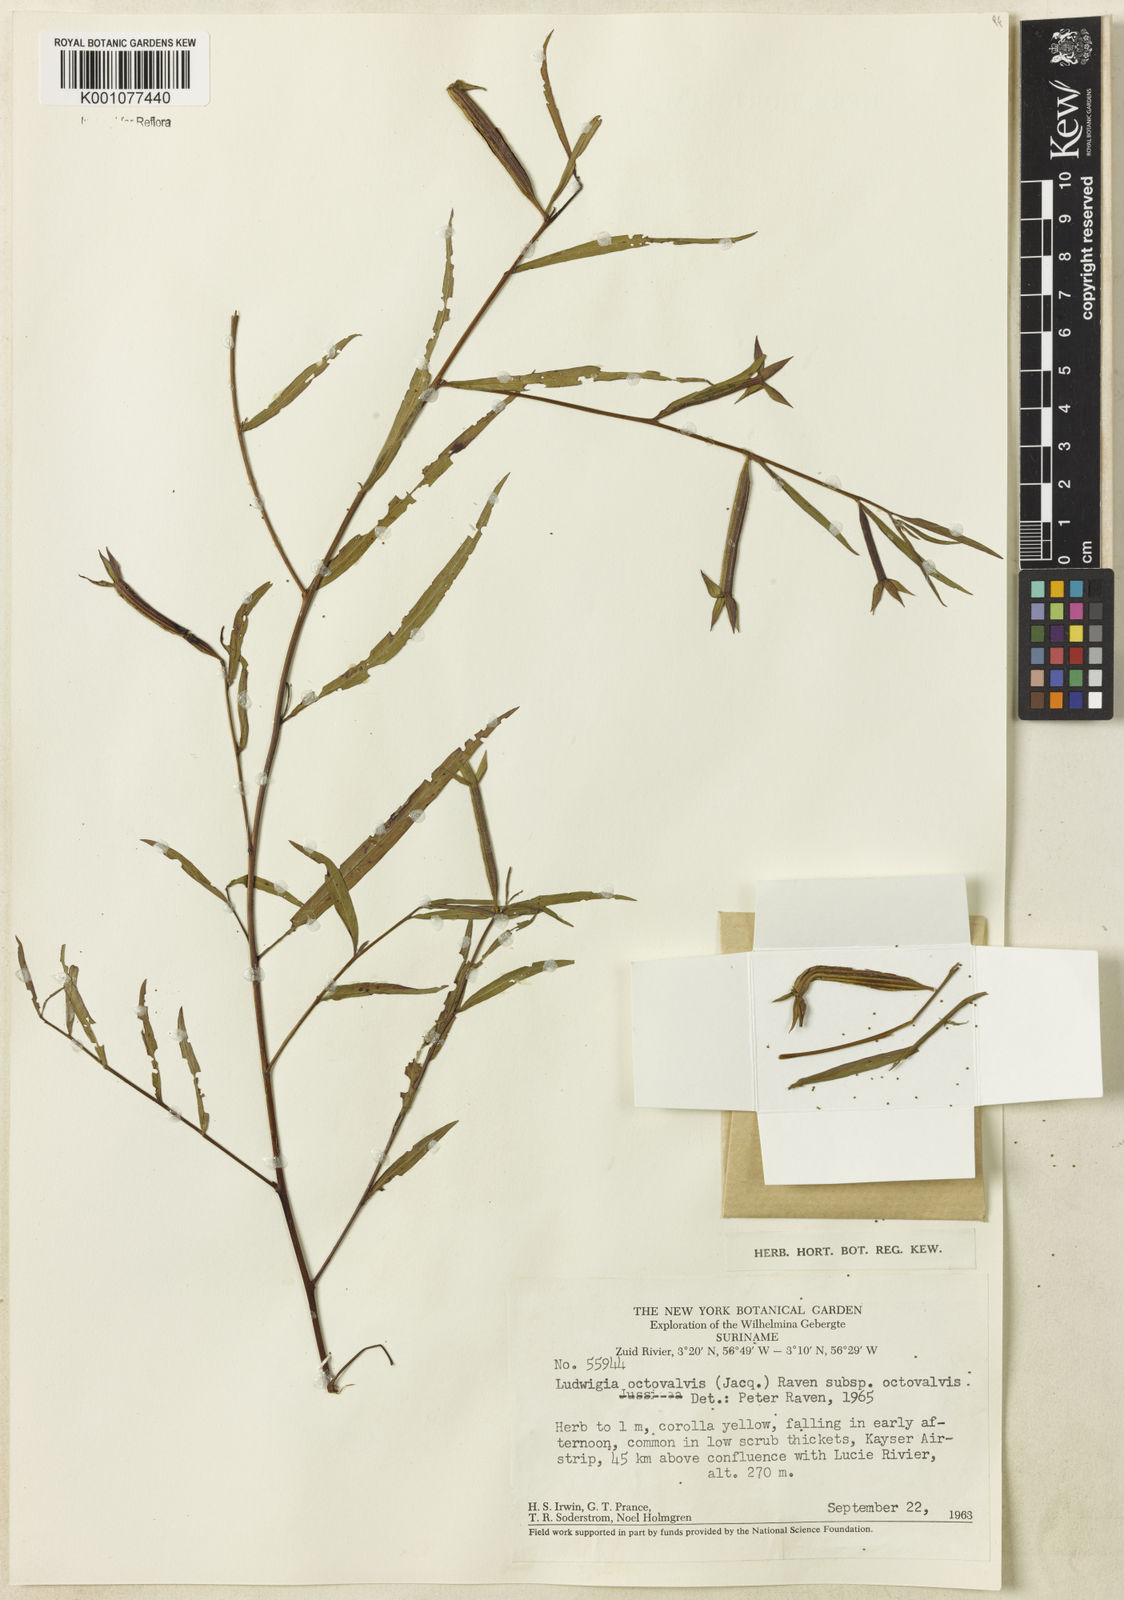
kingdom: Plantae
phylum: Tracheophyta
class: Magnoliopsida
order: Myrtales
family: Onagraceae
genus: Ludwigia
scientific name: Ludwigia octovalvis
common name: Water-primrose
